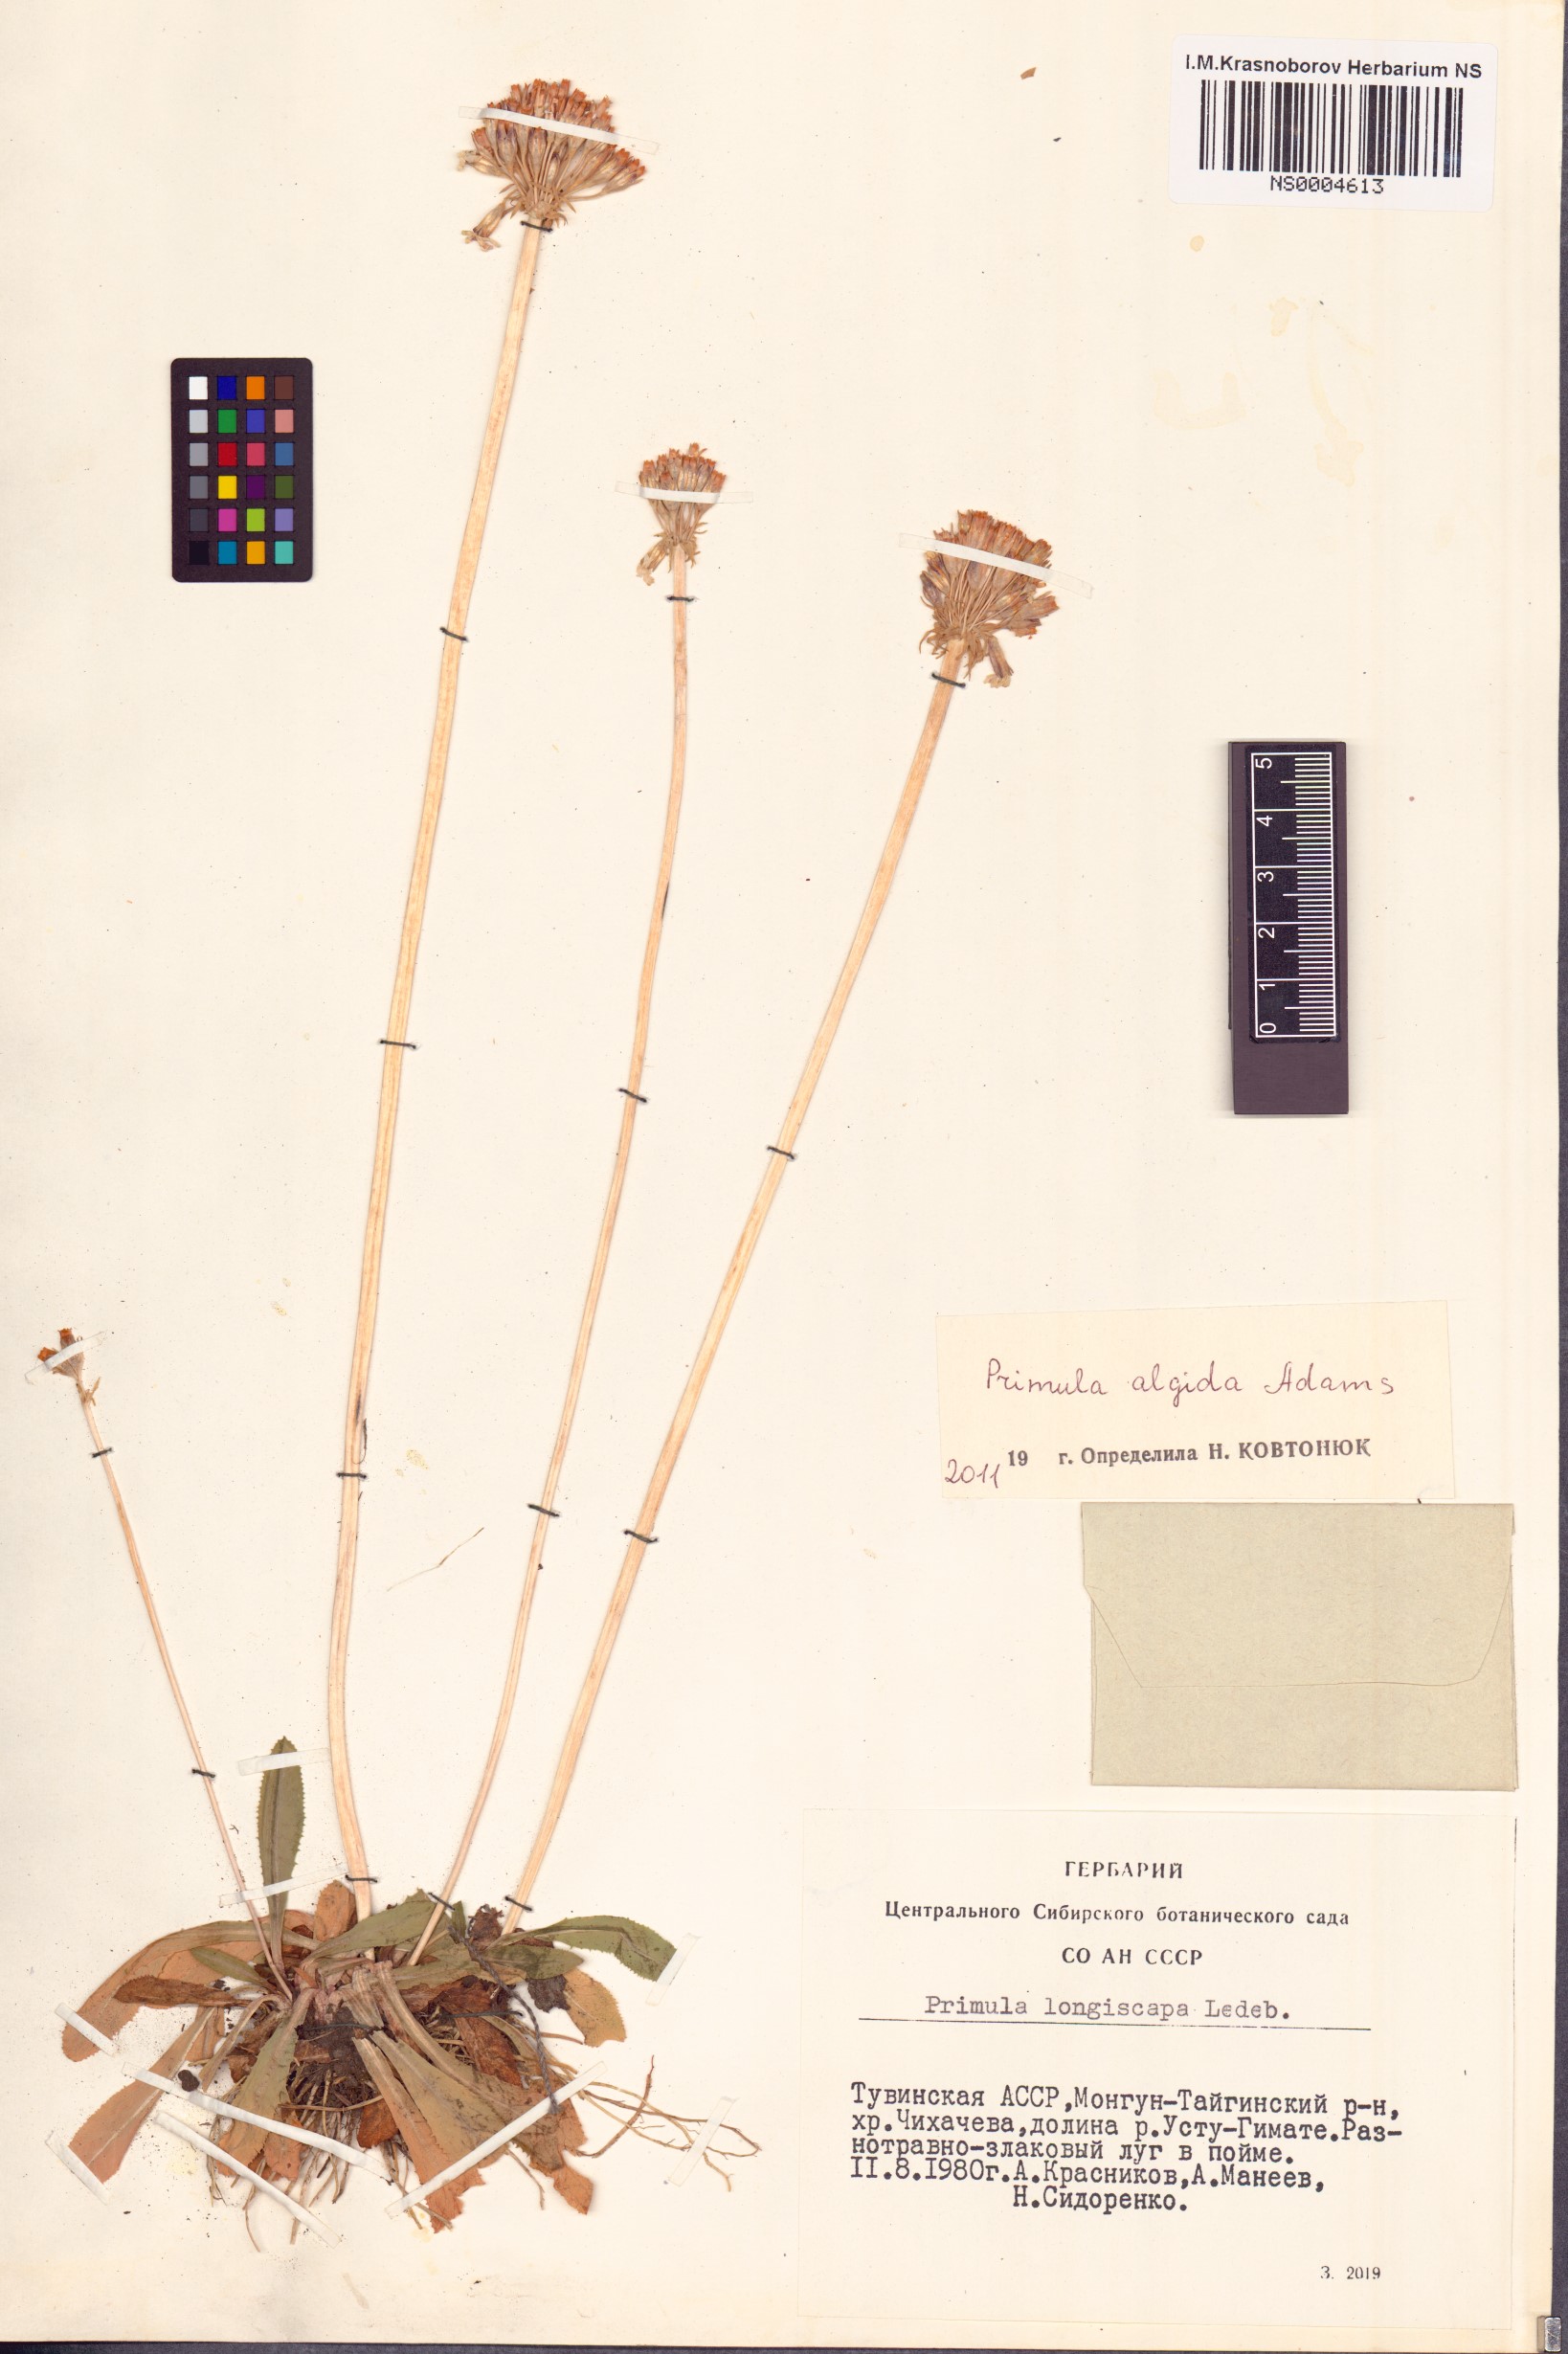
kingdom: Plantae
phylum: Tracheophyta
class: Magnoliopsida
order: Ericales
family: Primulaceae
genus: Primula
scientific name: Primula algida
